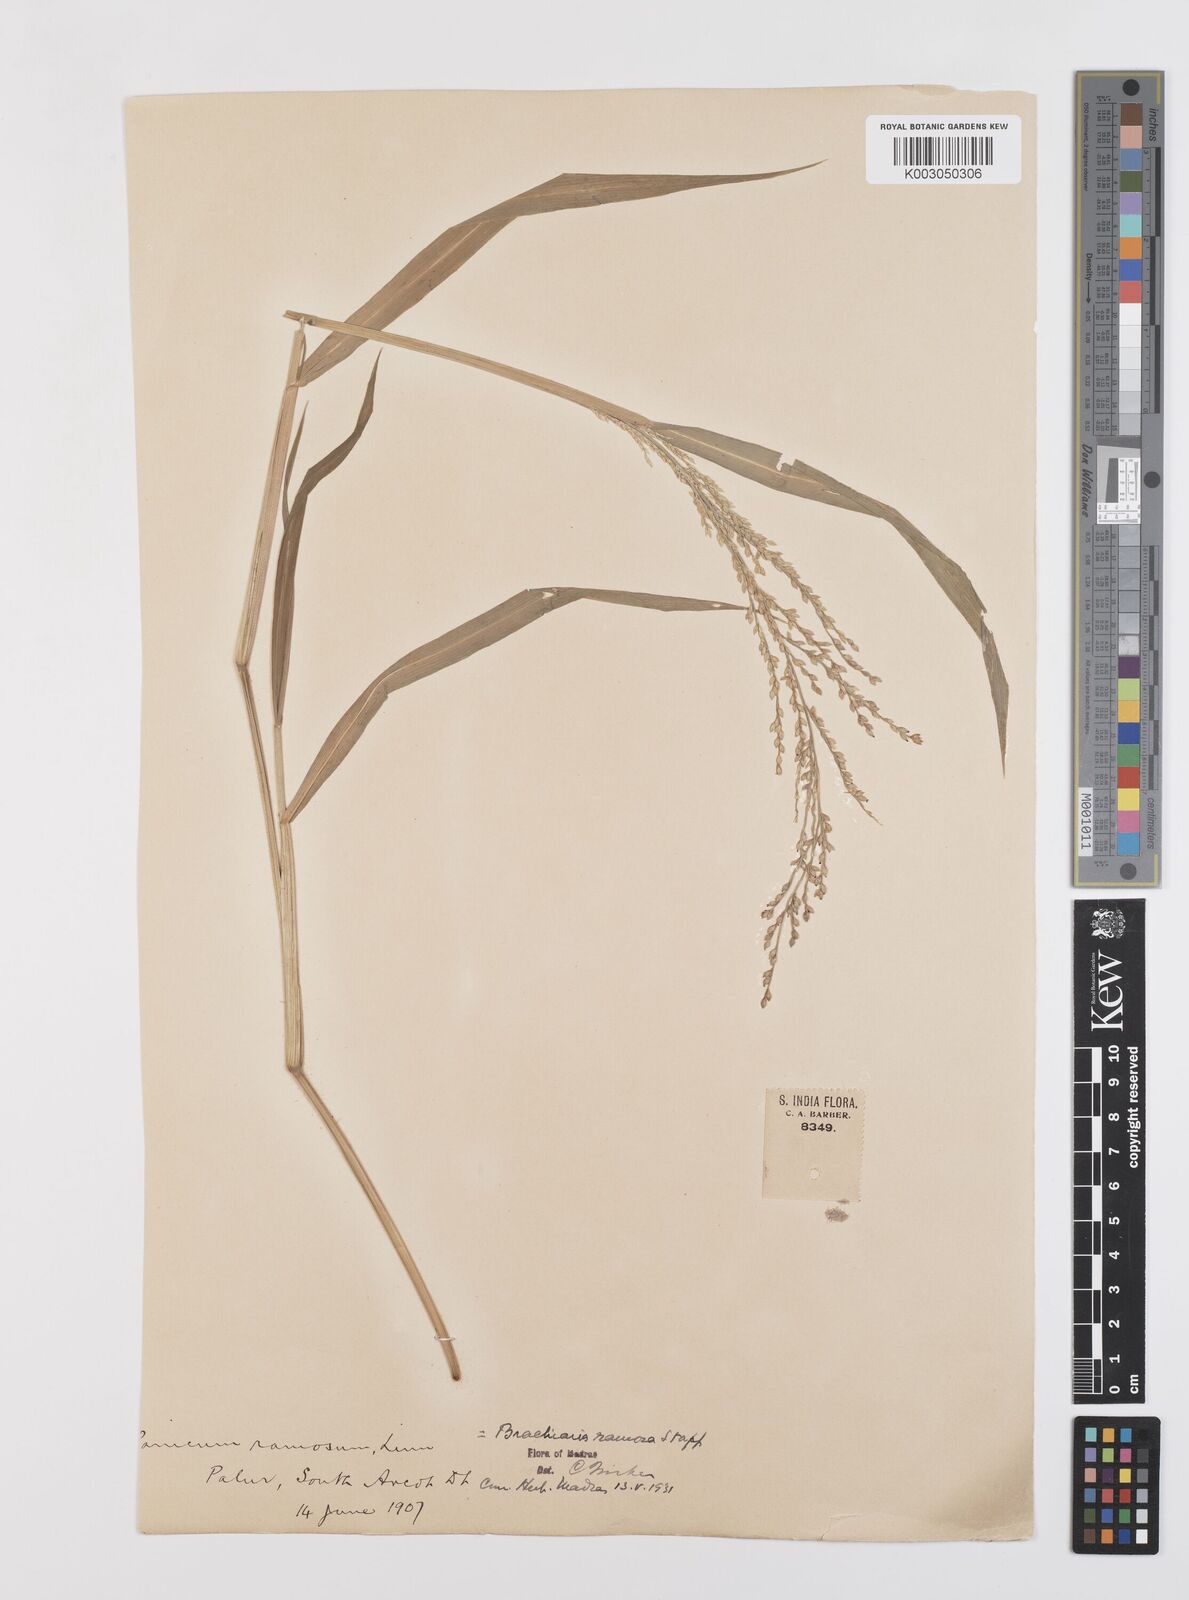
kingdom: Plantae
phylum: Tracheophyta
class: Liliopsida
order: Poales
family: Poaceae
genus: Urochloa
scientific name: Urochloa ramosa
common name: Browntop millet
